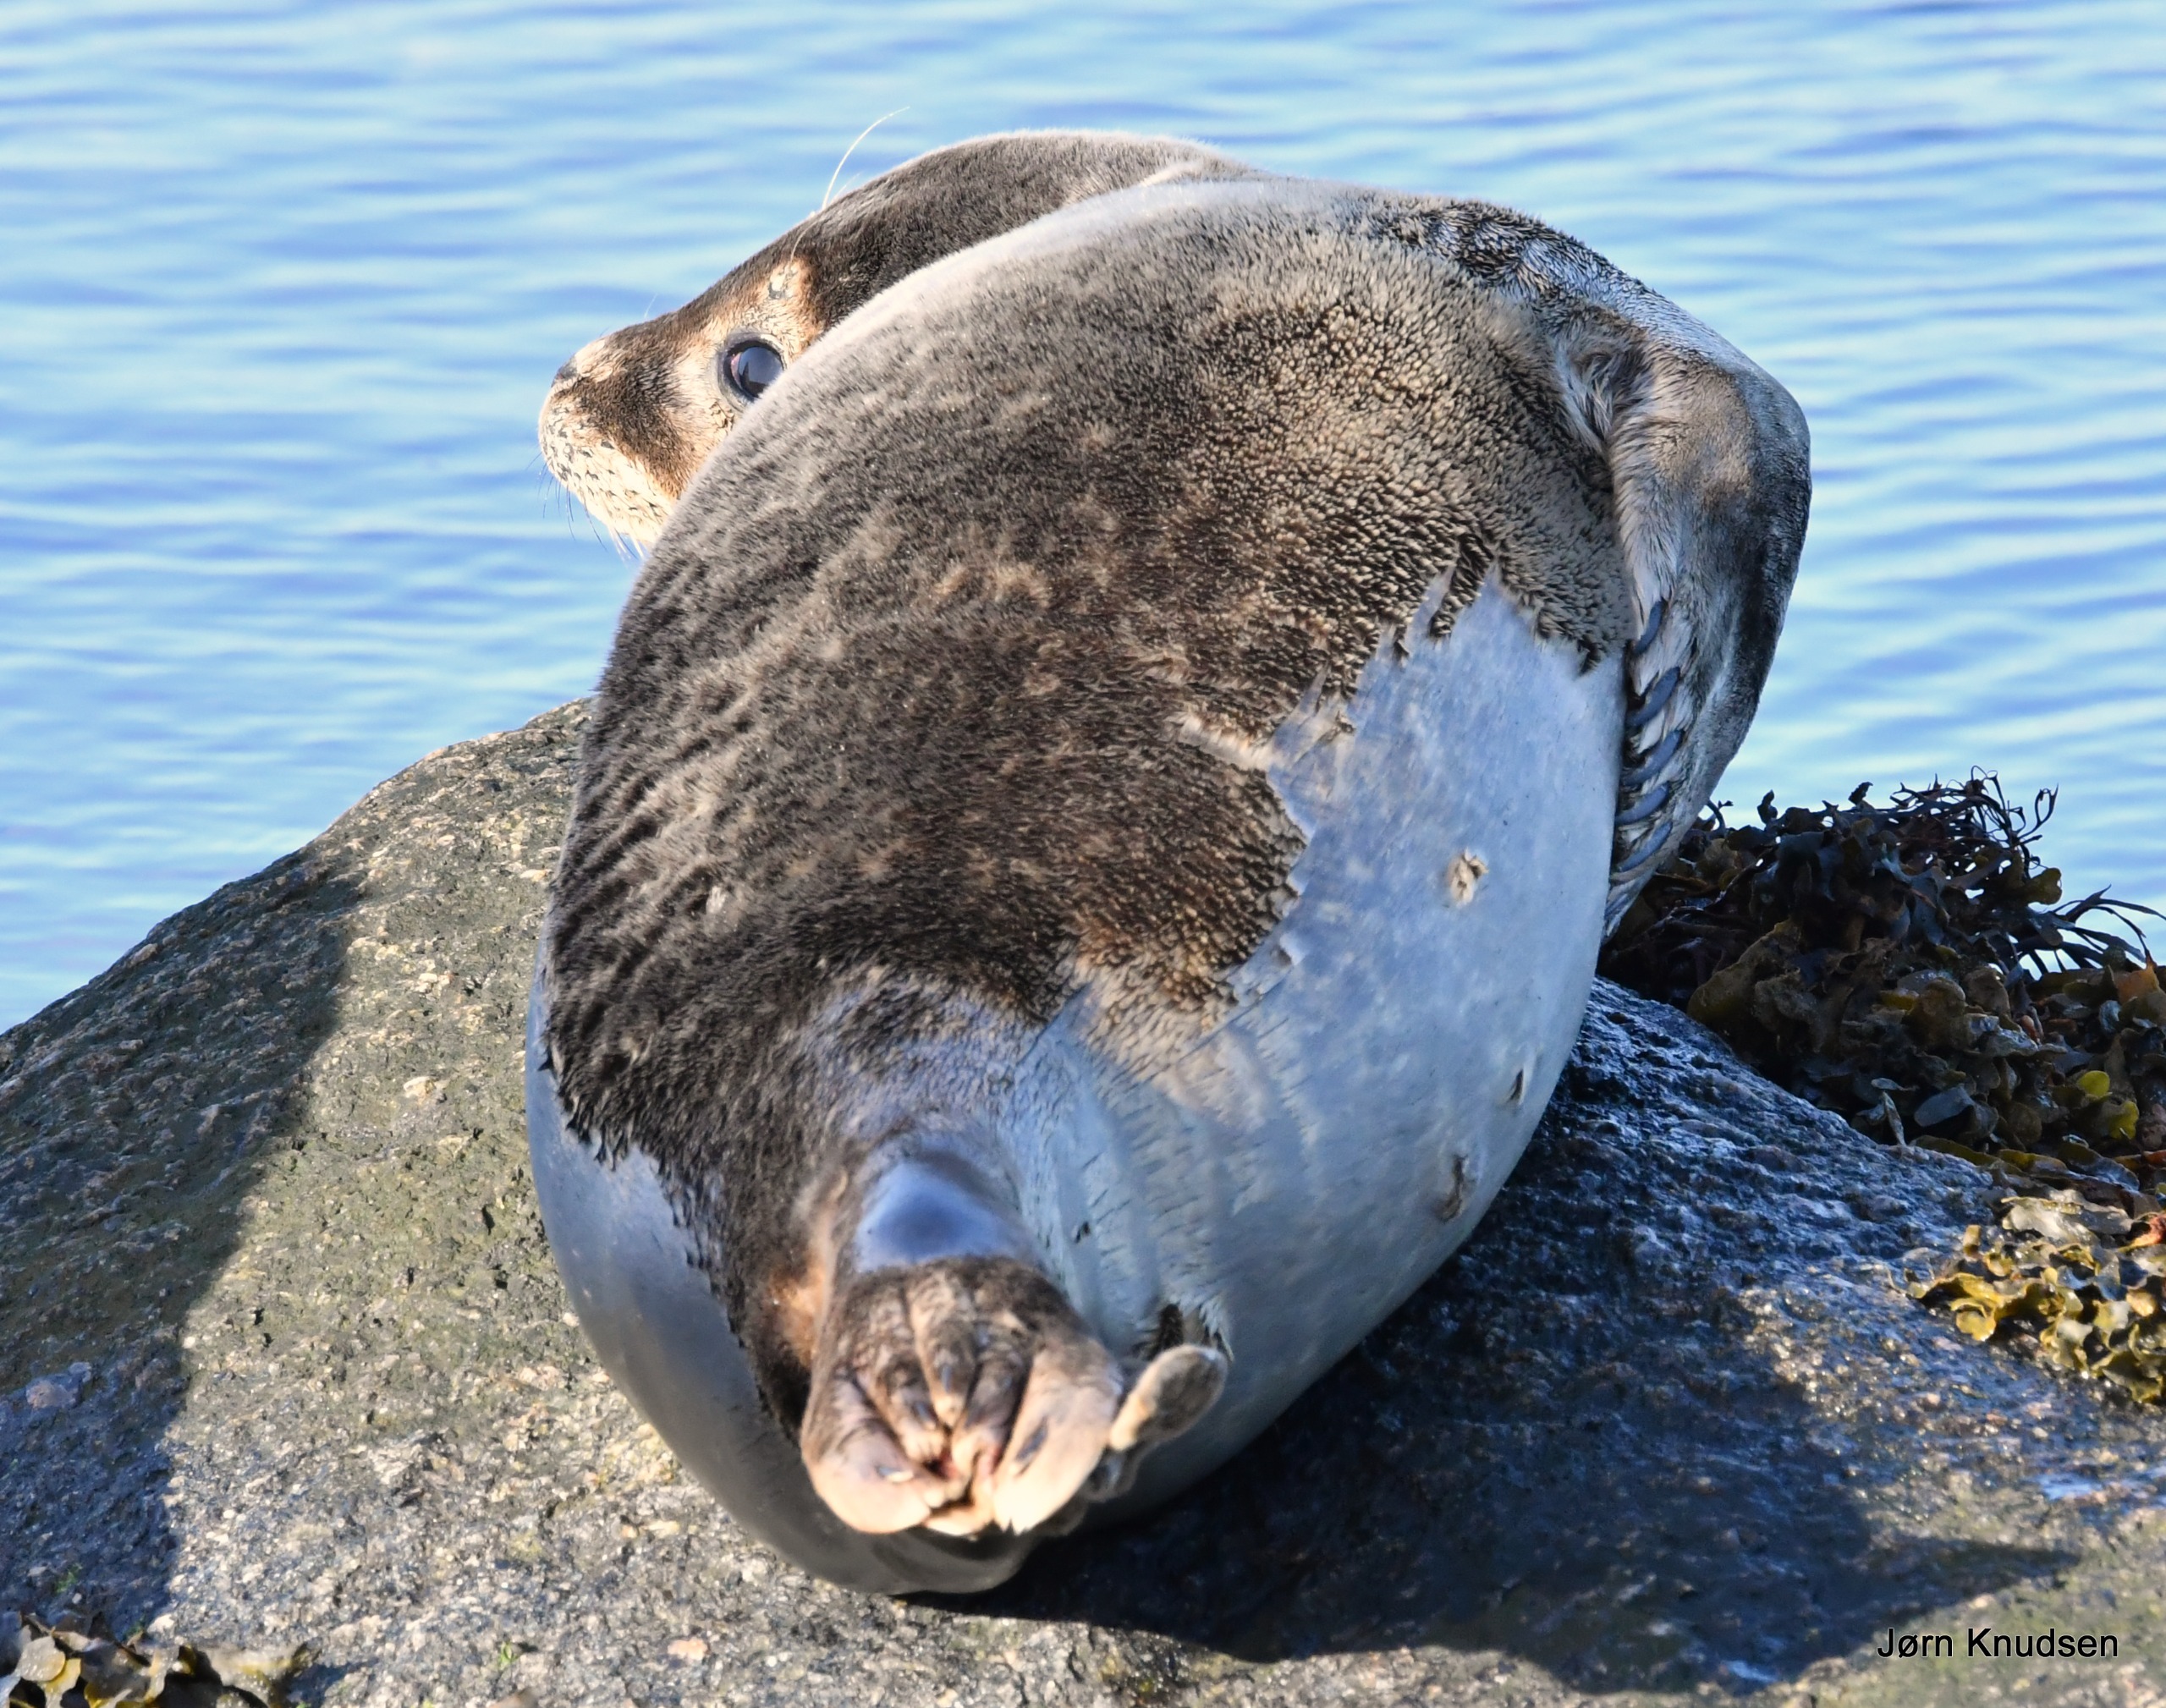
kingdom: Animalia
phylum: Chordata
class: Mammalia
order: Carnivora
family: Phocidae
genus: Phoca
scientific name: Phoca vitulina
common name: Spættet sæl
